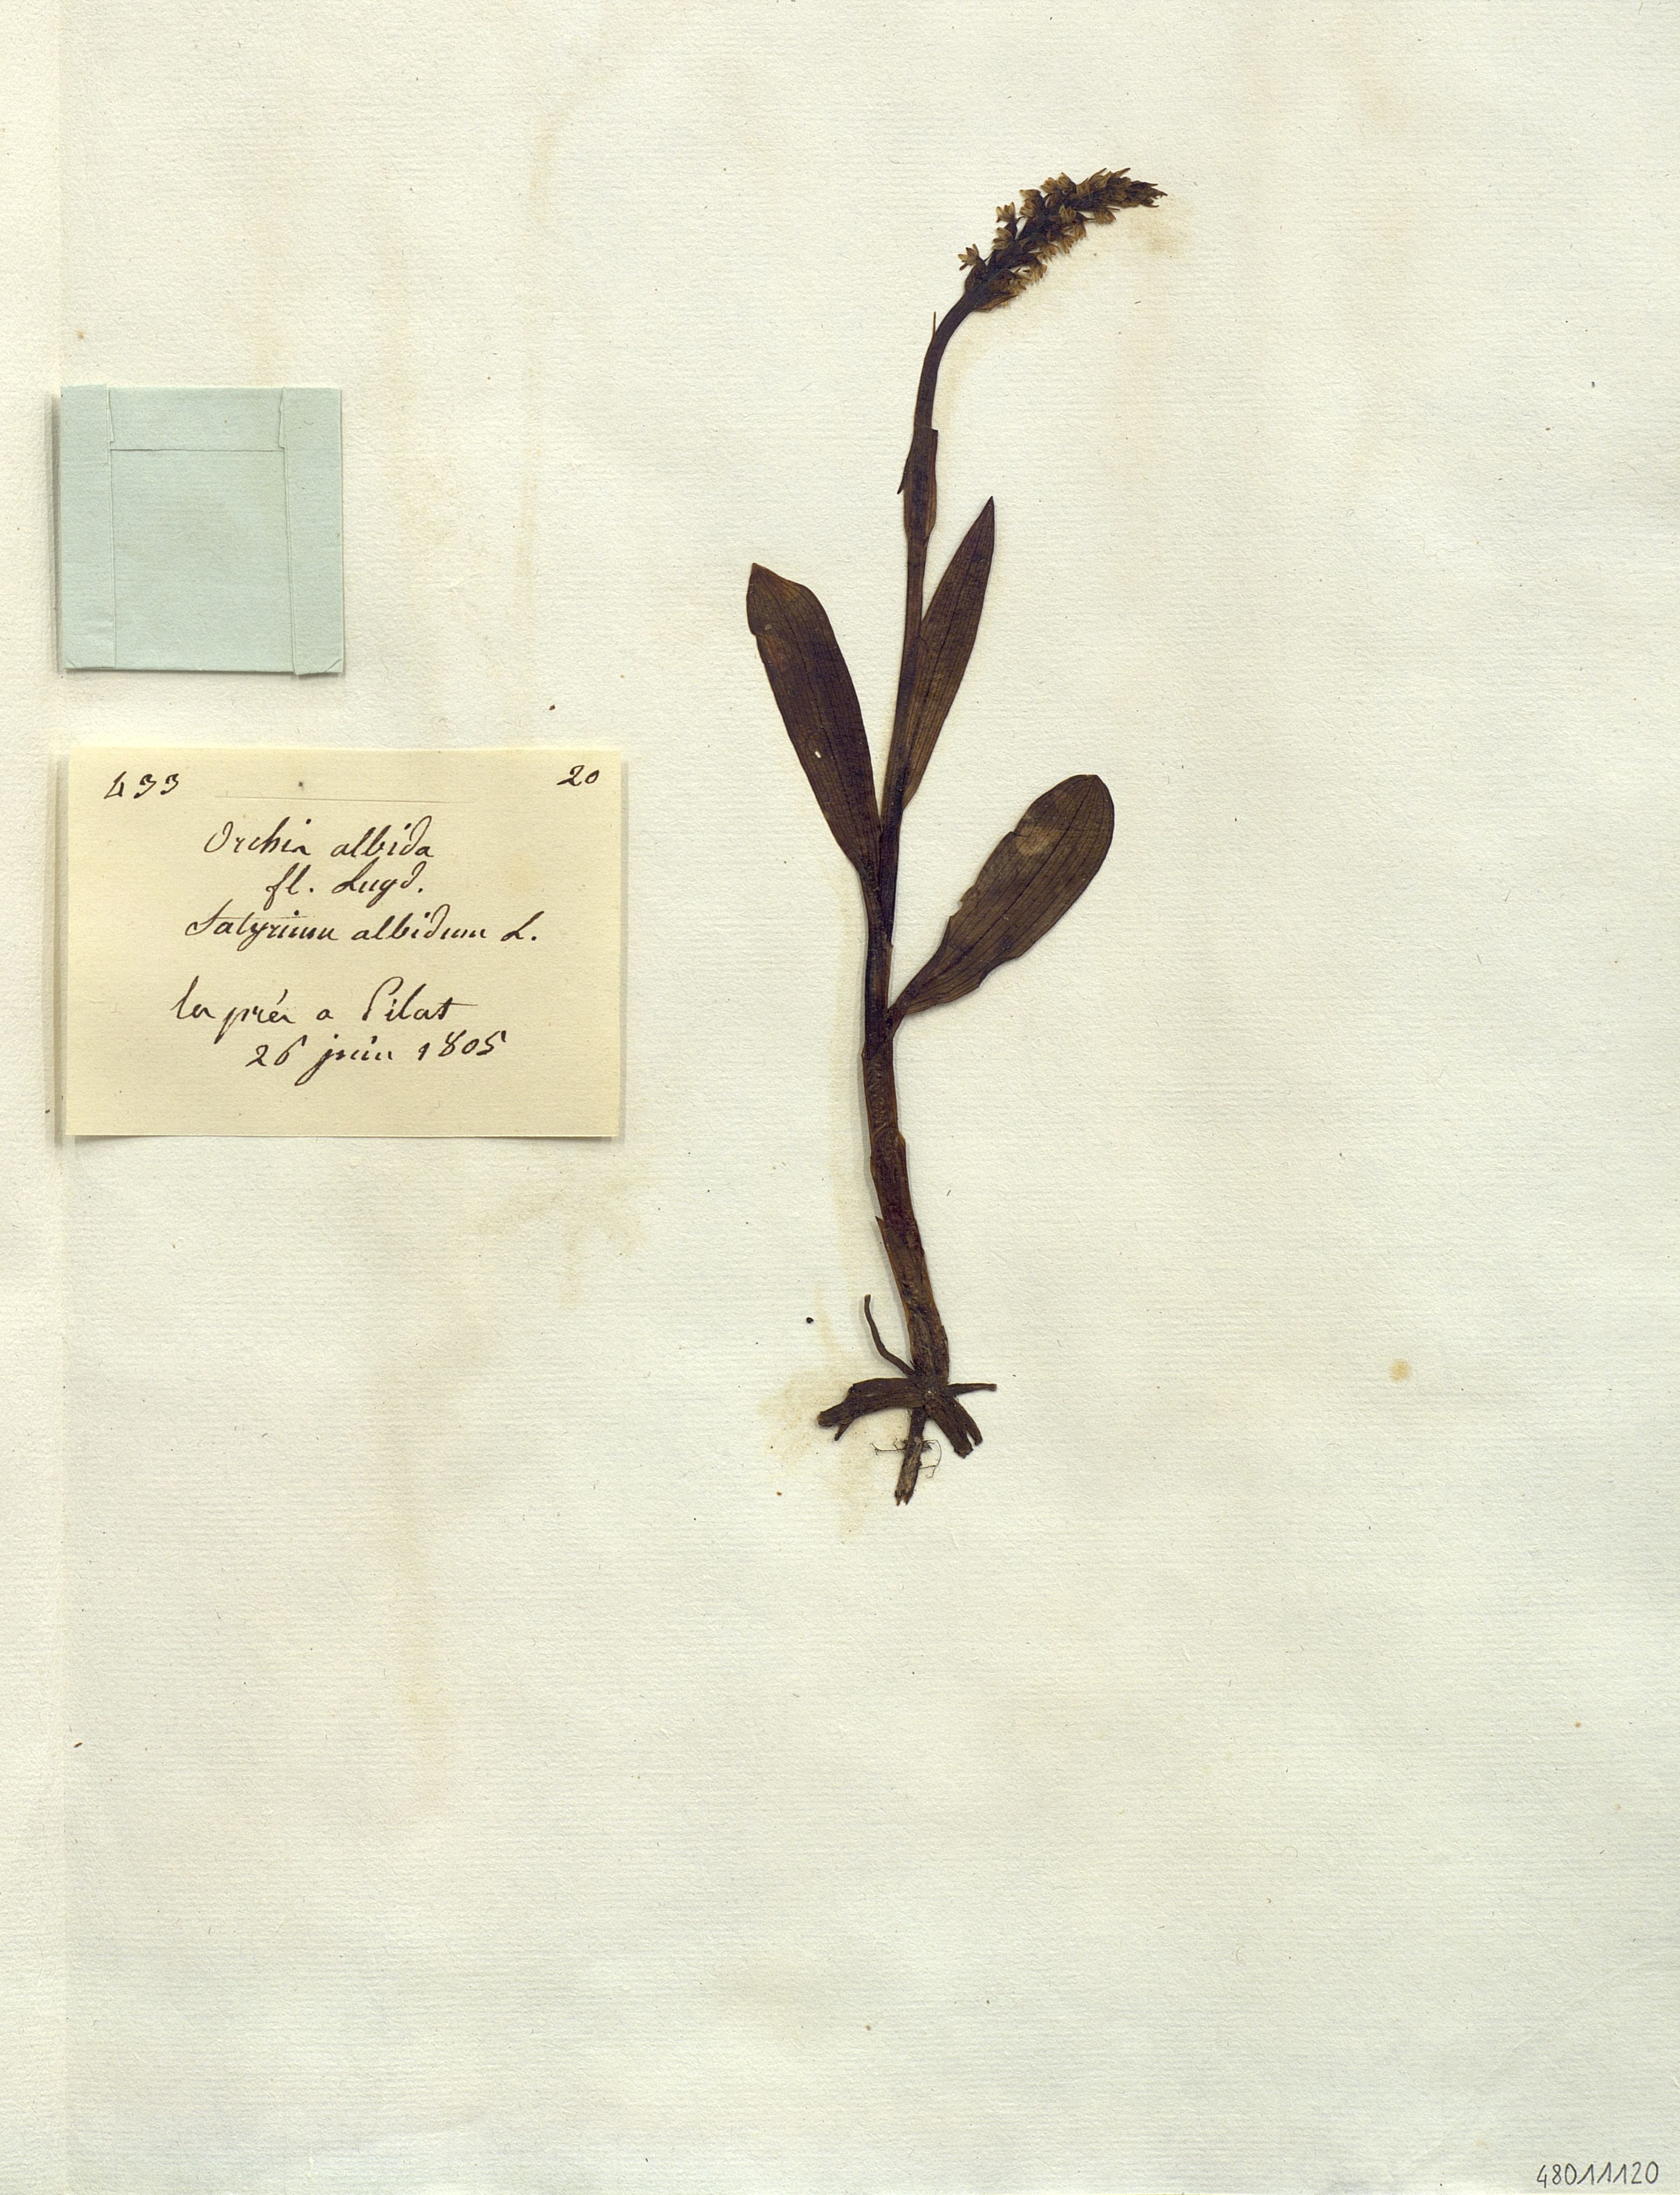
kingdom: Plantae
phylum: Tracheophyta
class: Liliopsida
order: Asparagales
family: Orchidaceae
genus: Orchis
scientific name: Orchis albida
